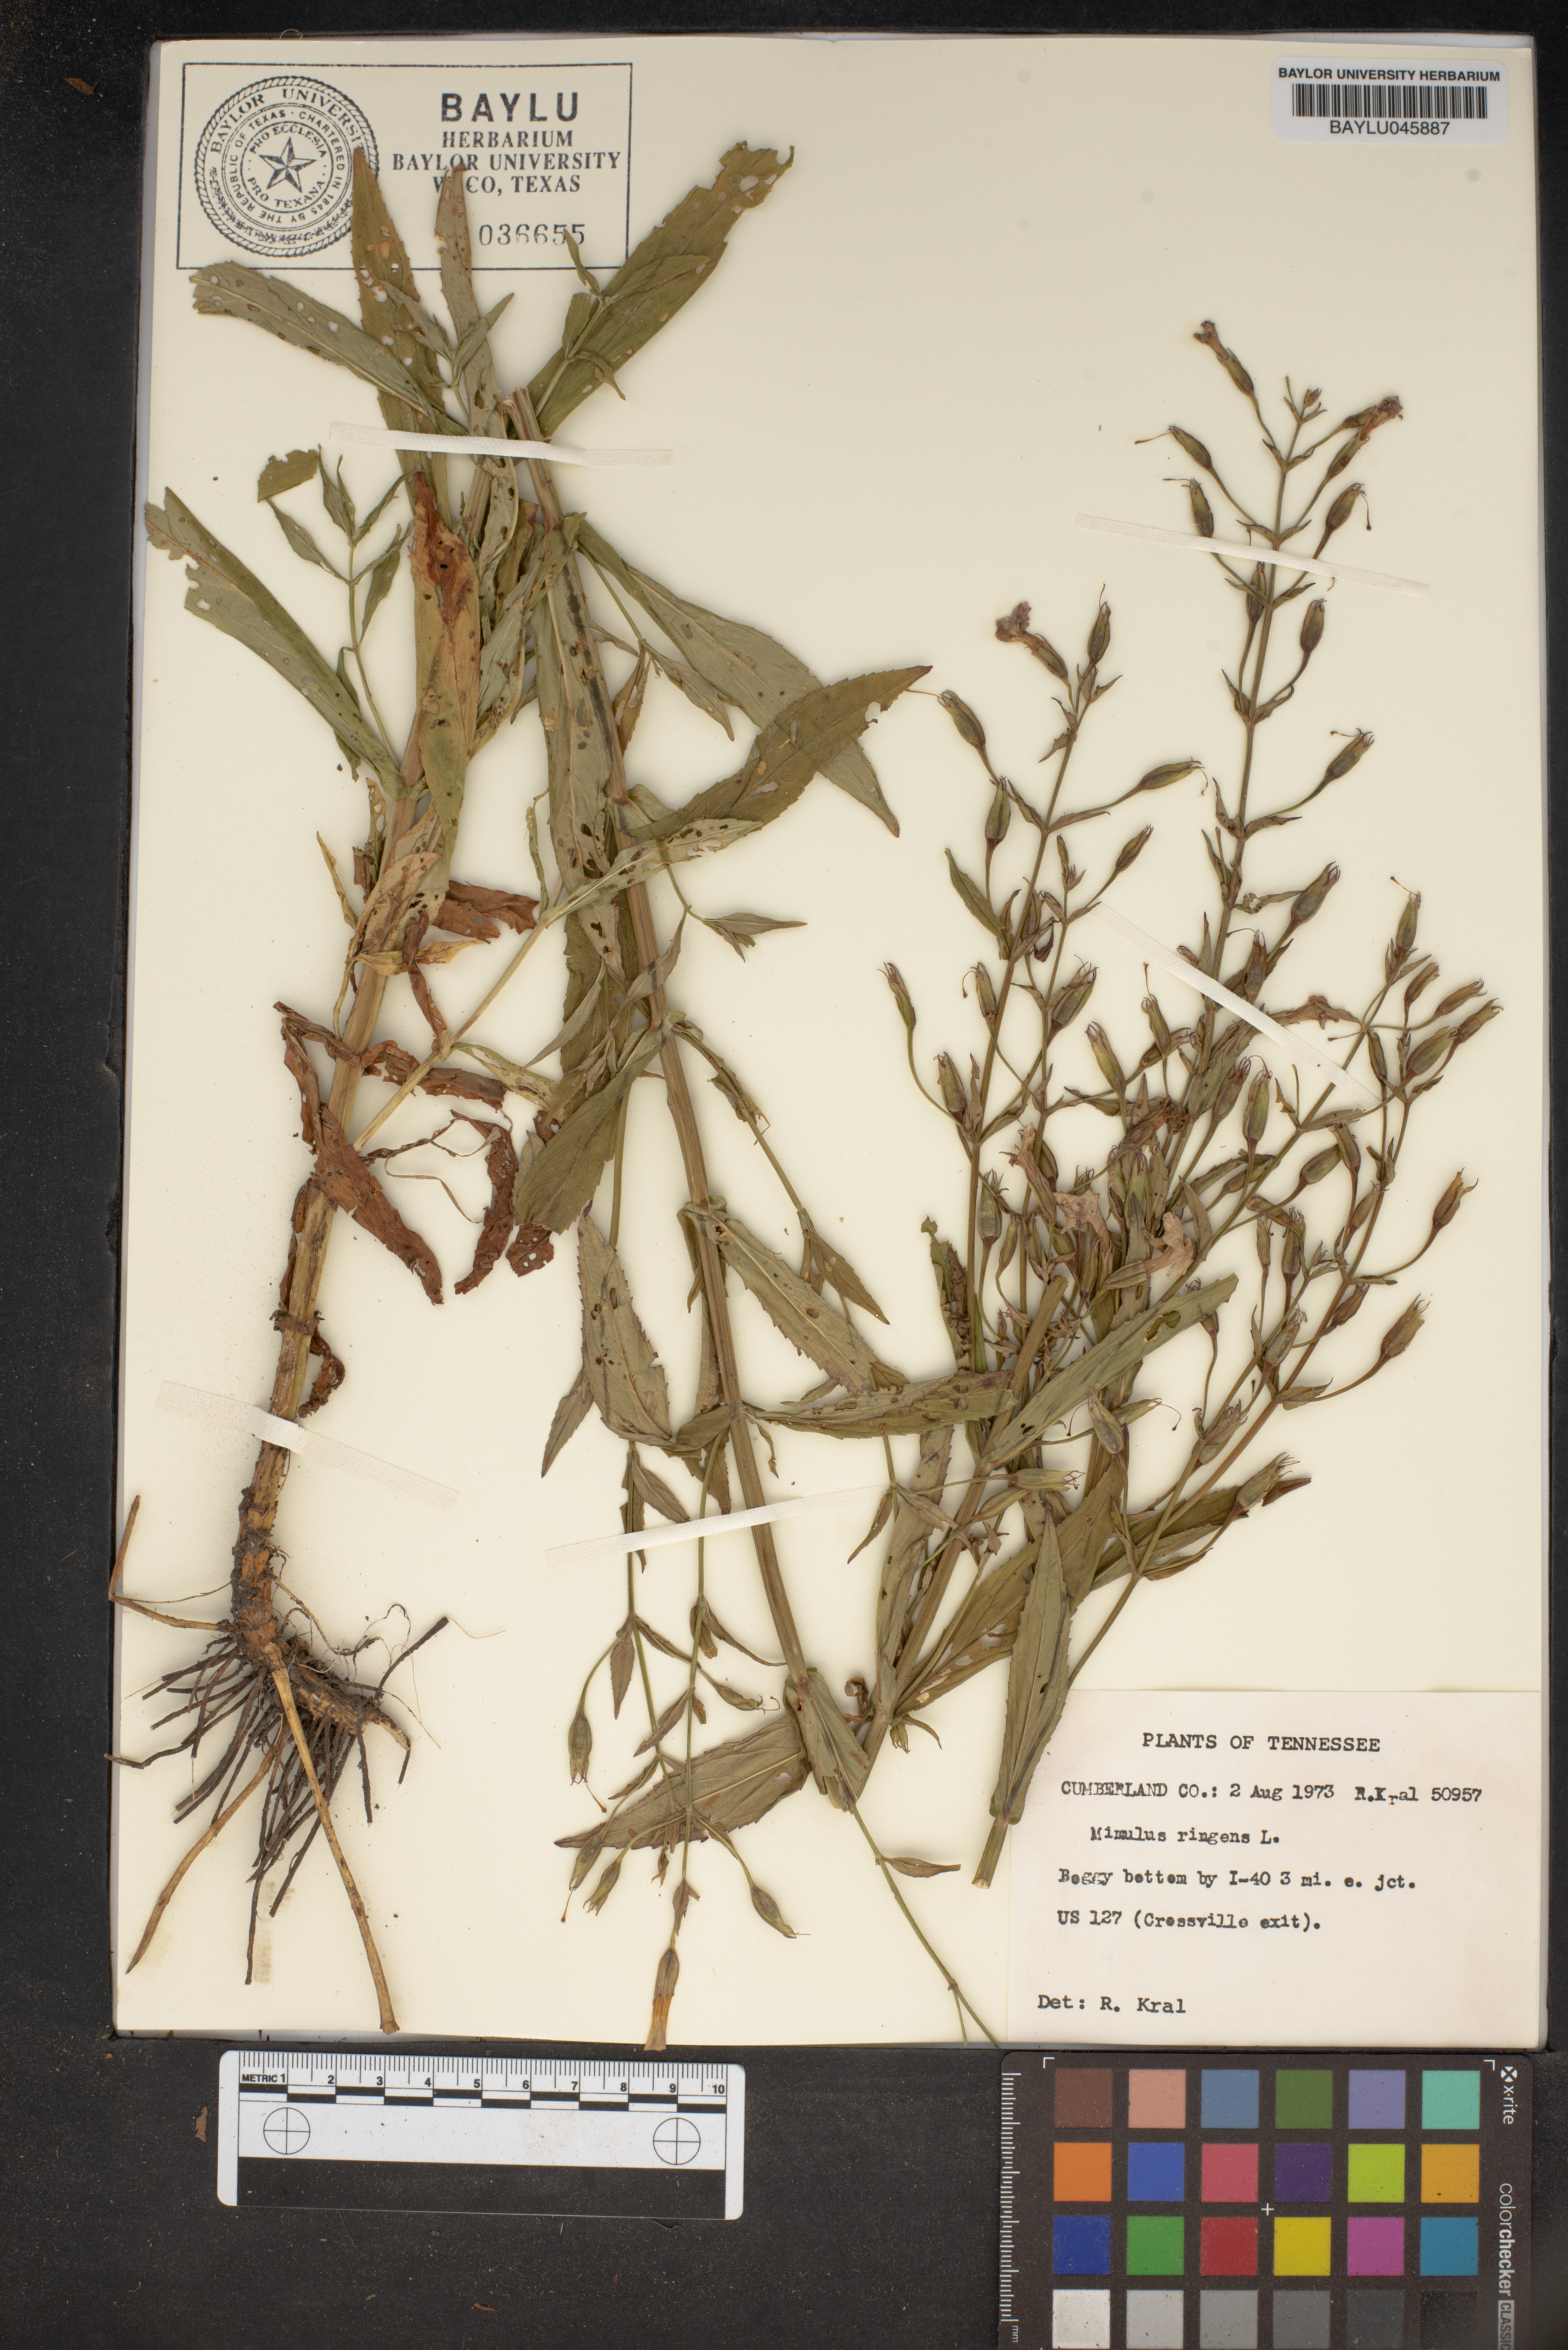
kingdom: Plantae
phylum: Tracheophyta
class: Magnoliopsida
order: Lamiales
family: Phrymaceae
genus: Mimulus
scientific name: Mimulus ringens
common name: Allegheny monkeyflower
